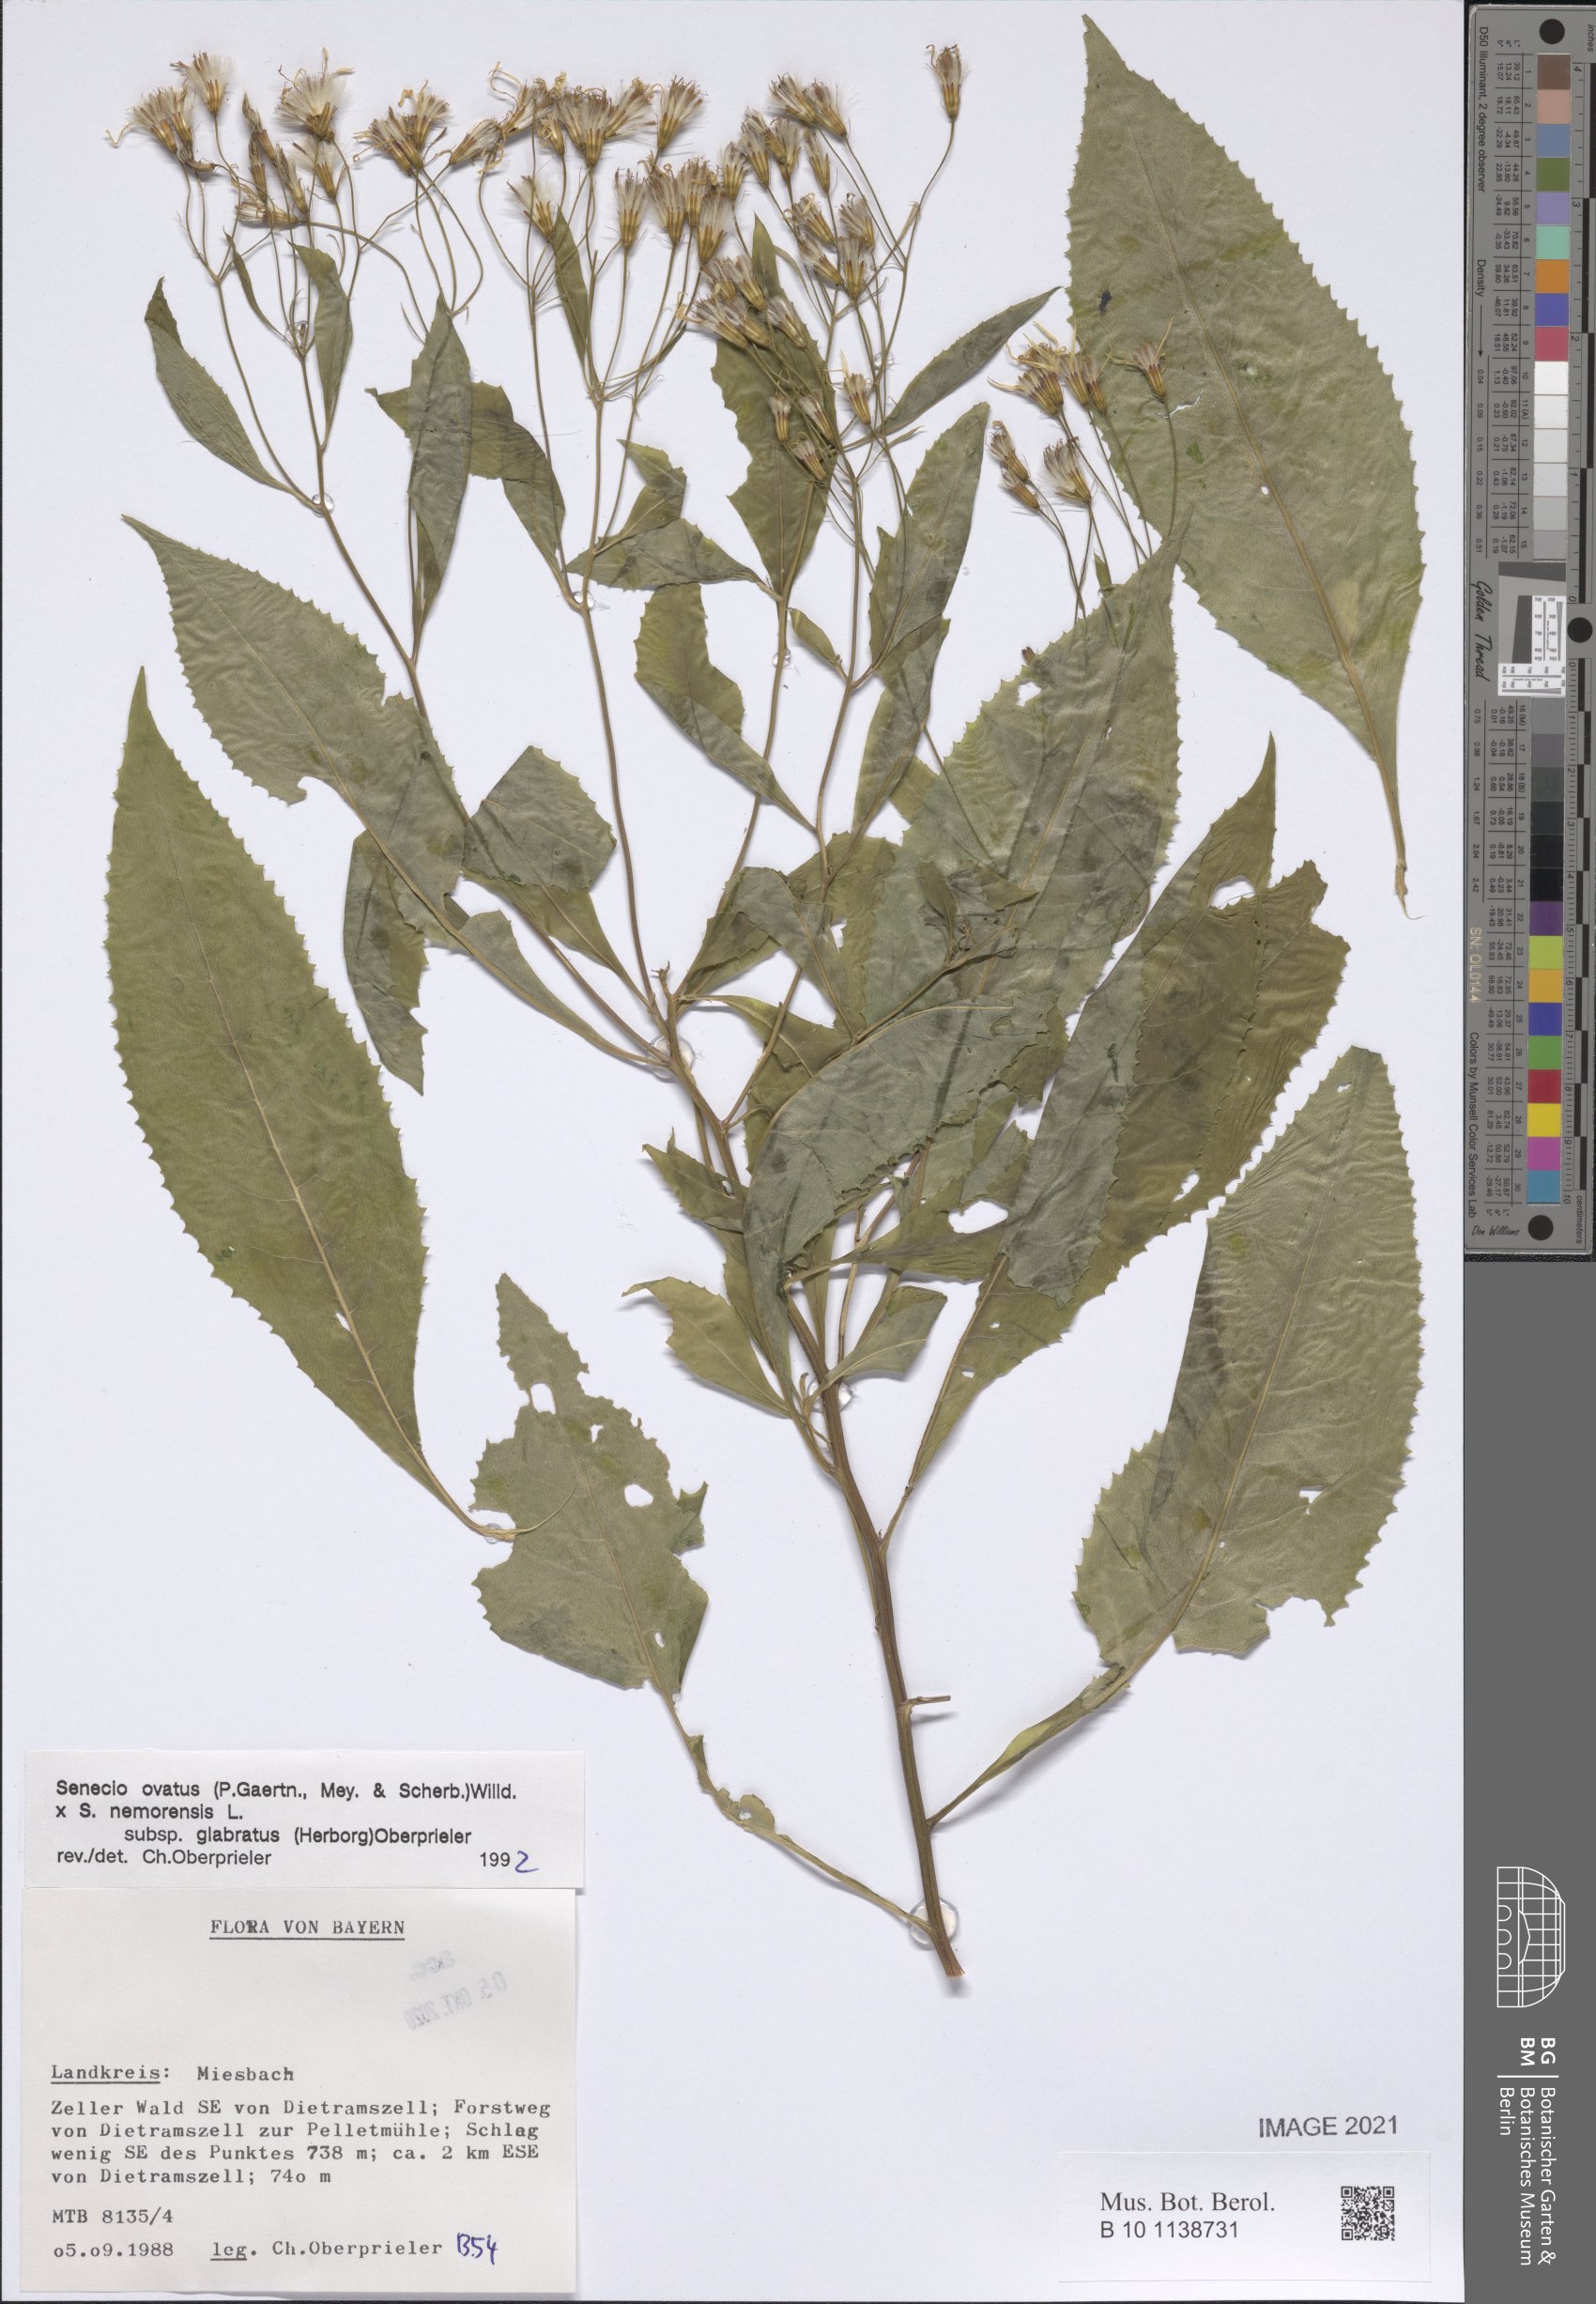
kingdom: Plantae
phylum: Tracheophyta
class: Magnoliopsida
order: Asterales
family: Asteraceae
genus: Senecio
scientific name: Senecio ovatus
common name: Wood ragwort
